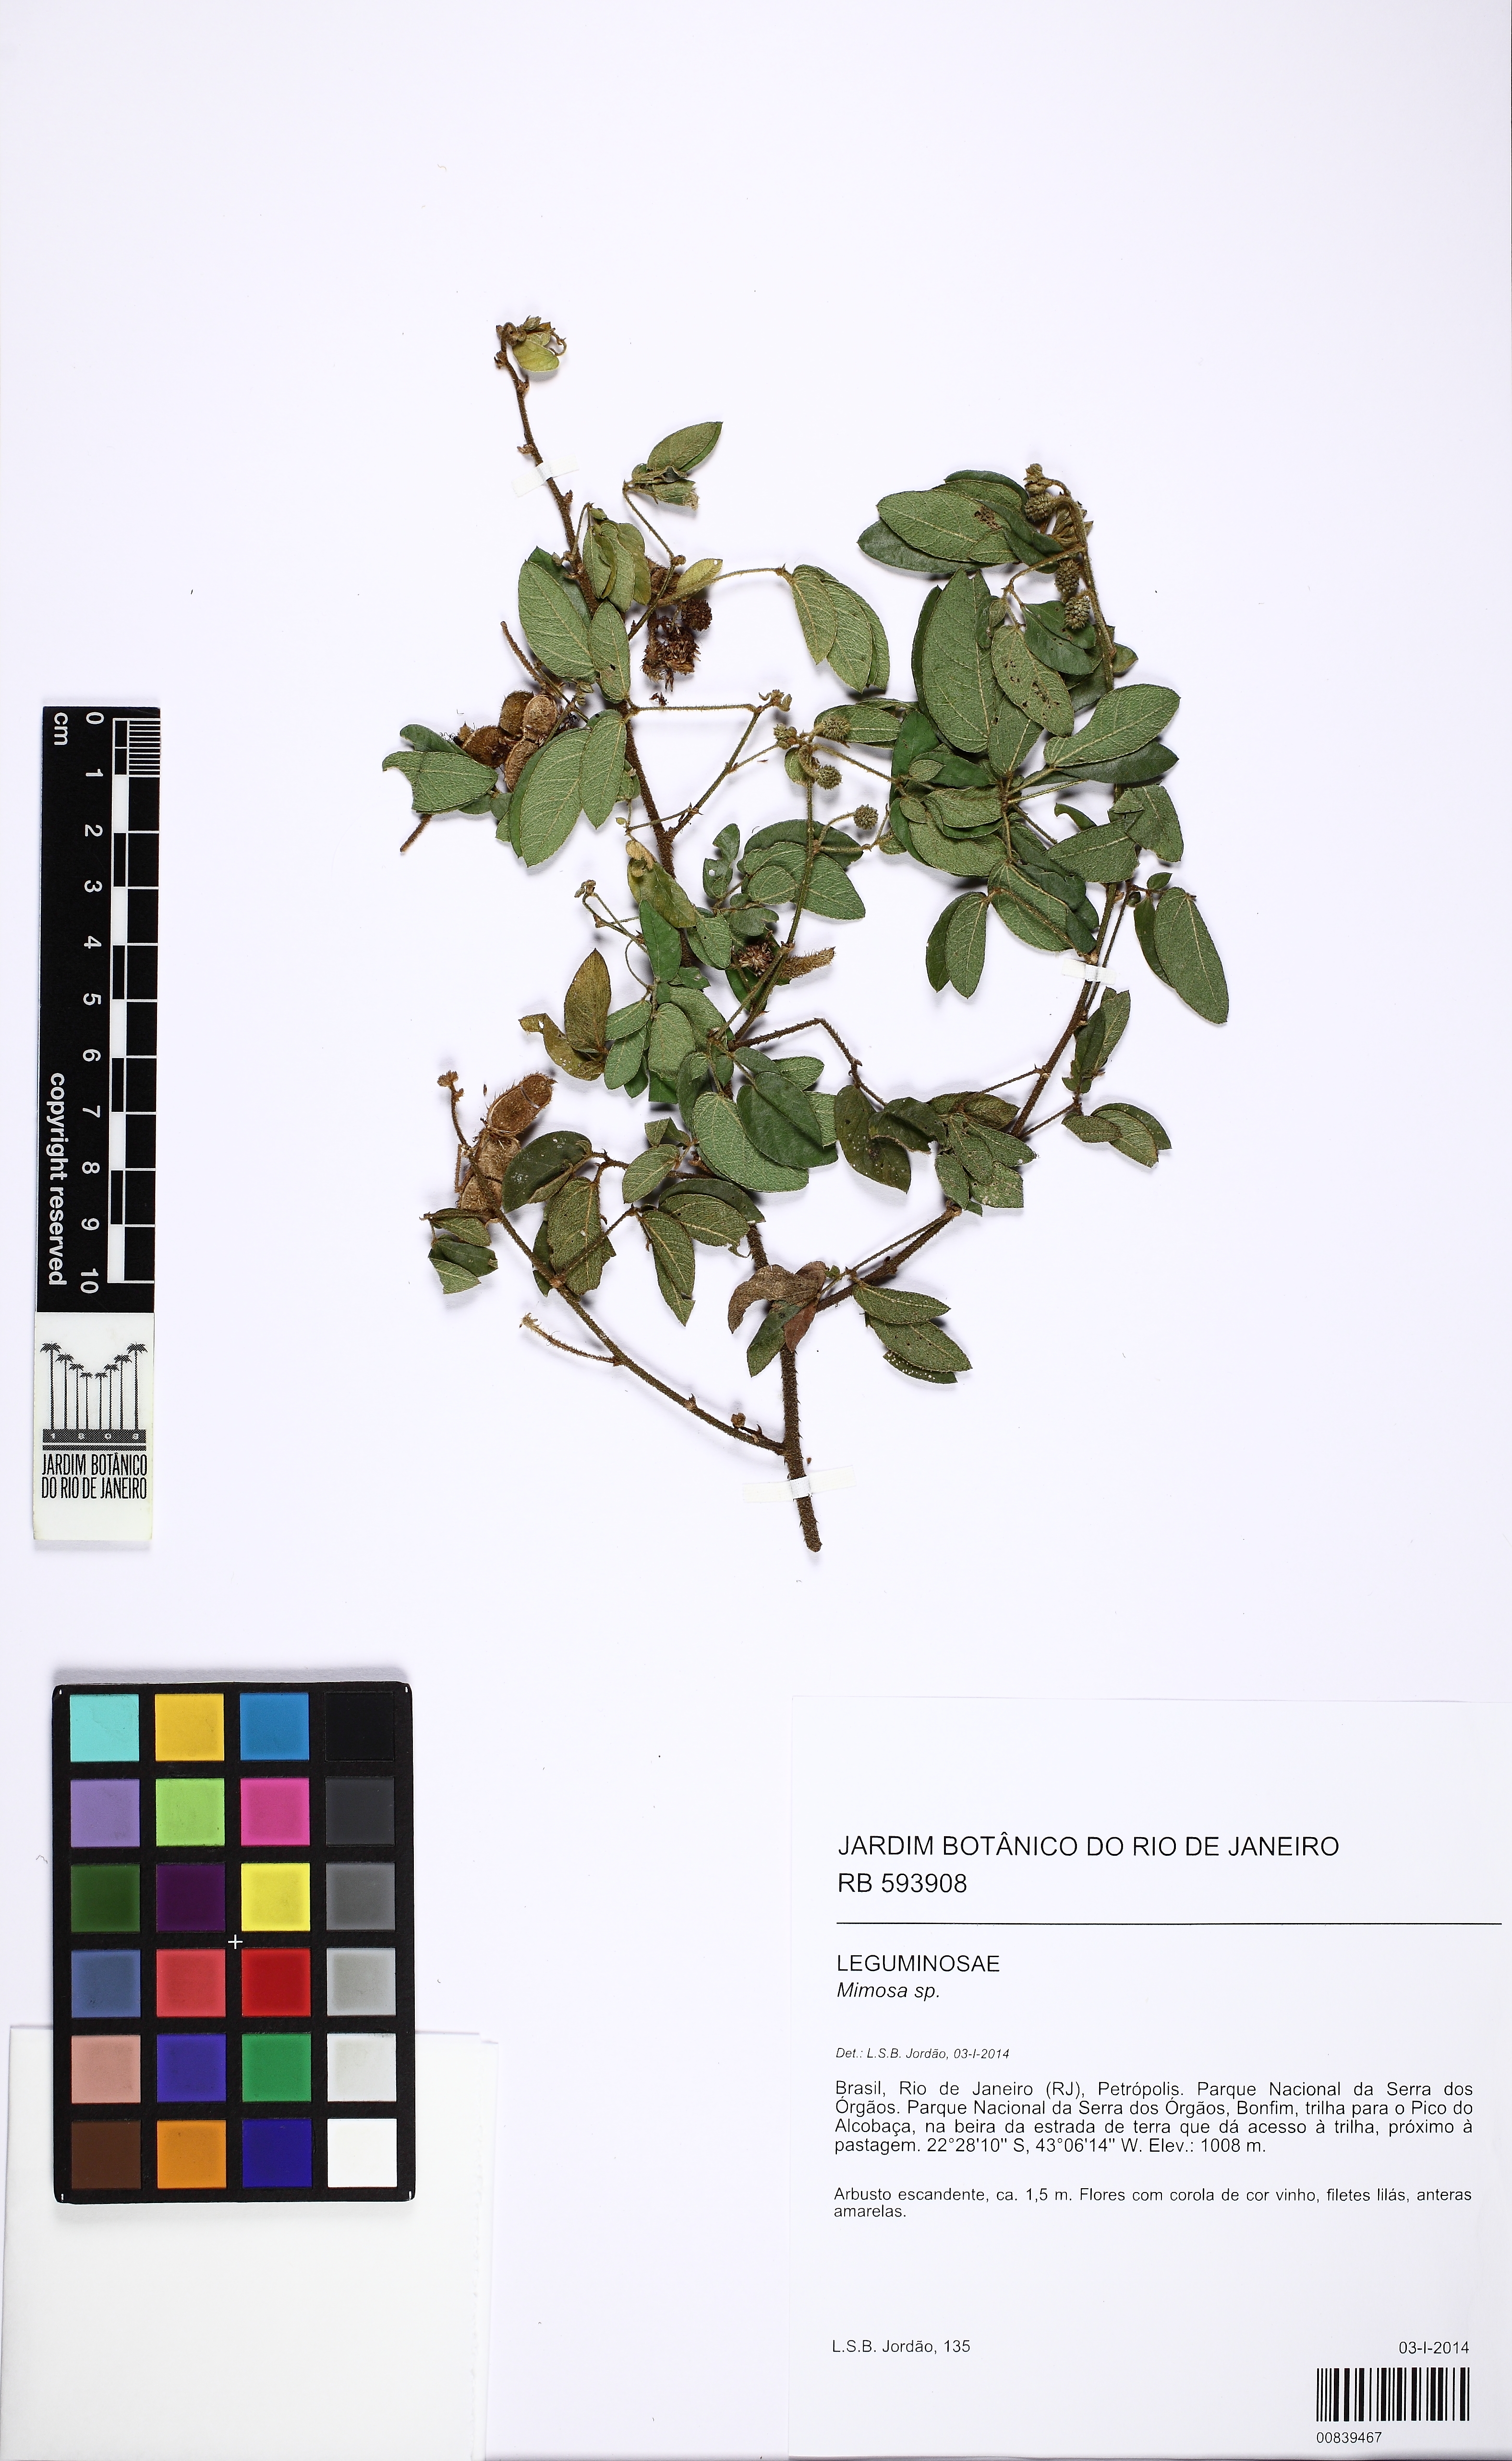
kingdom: Plantae
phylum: Tracheophyta
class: Magnoliopsida
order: Fabales
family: Fabaceae
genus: Mimosa
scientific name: Mimosa porrecta
